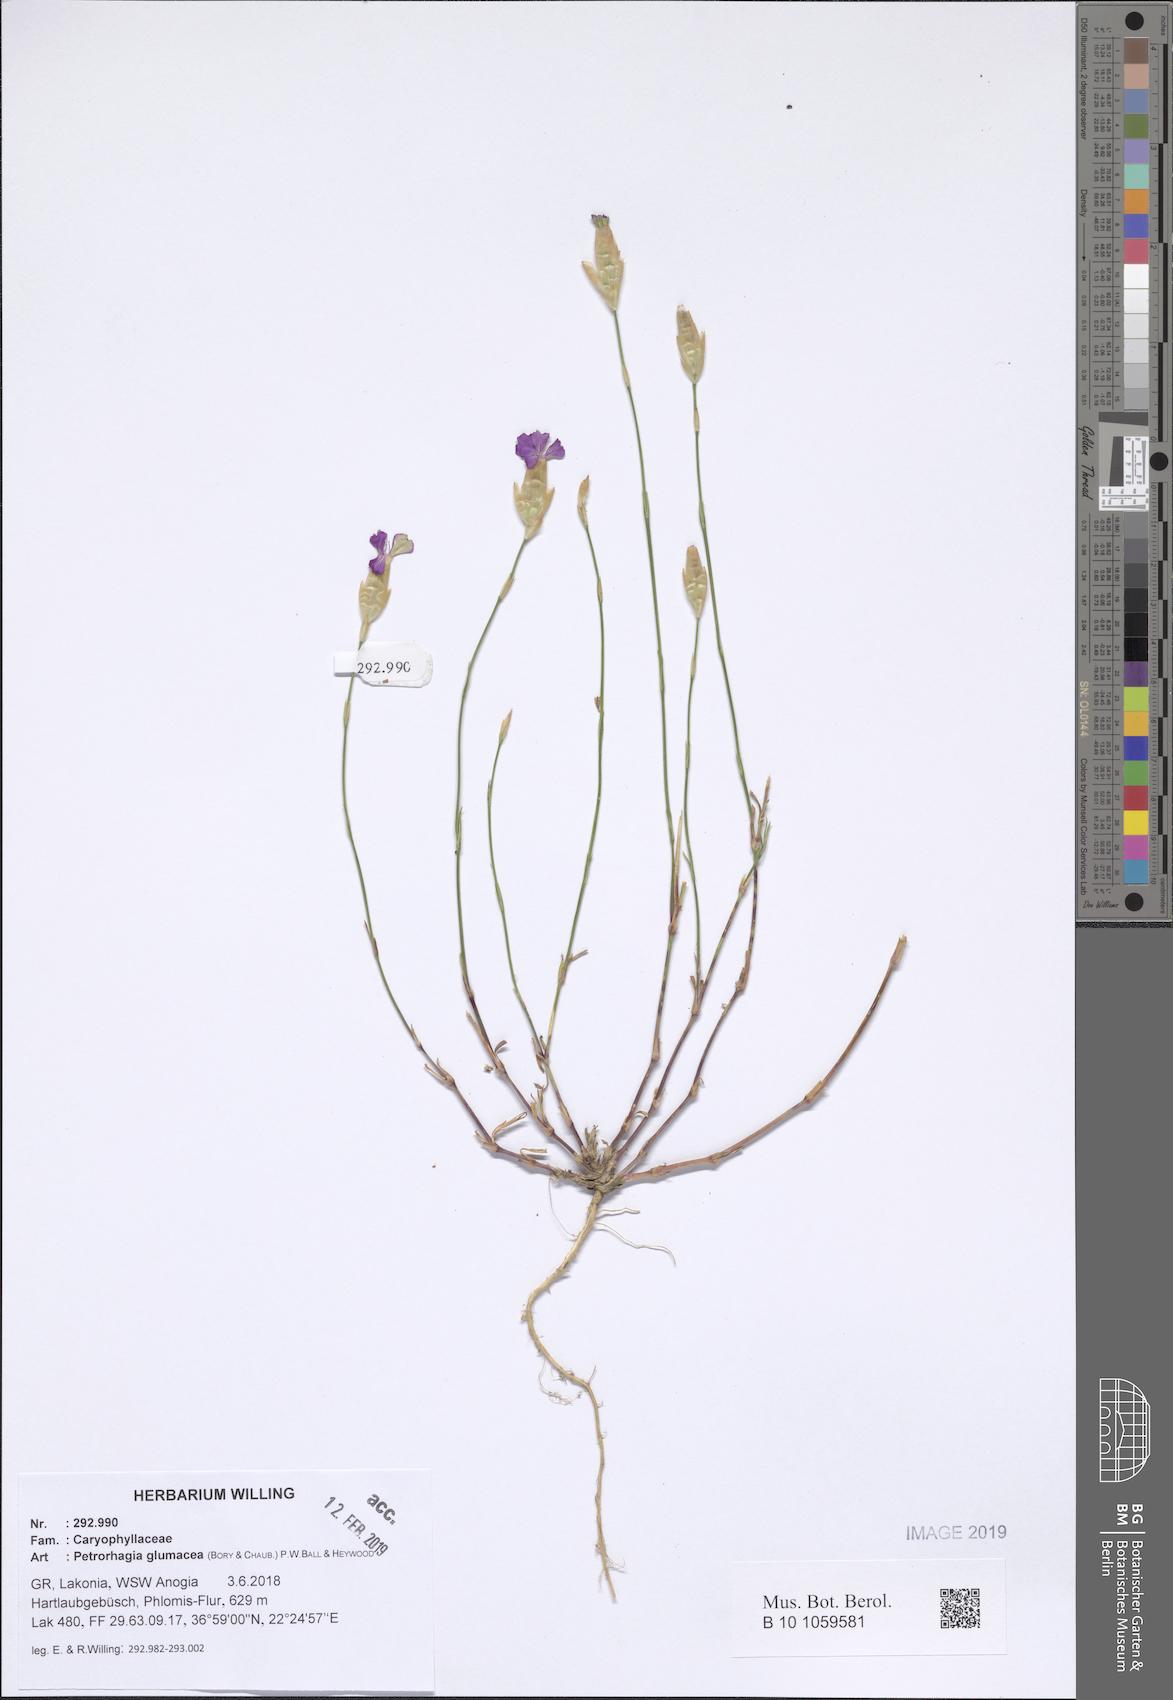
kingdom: Plantae
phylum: Tracheophyta
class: Magnoliopsida
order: Caryophyllales
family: Caryophyllaceae
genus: Petrorhagia
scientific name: Petrorhagia glumacea
